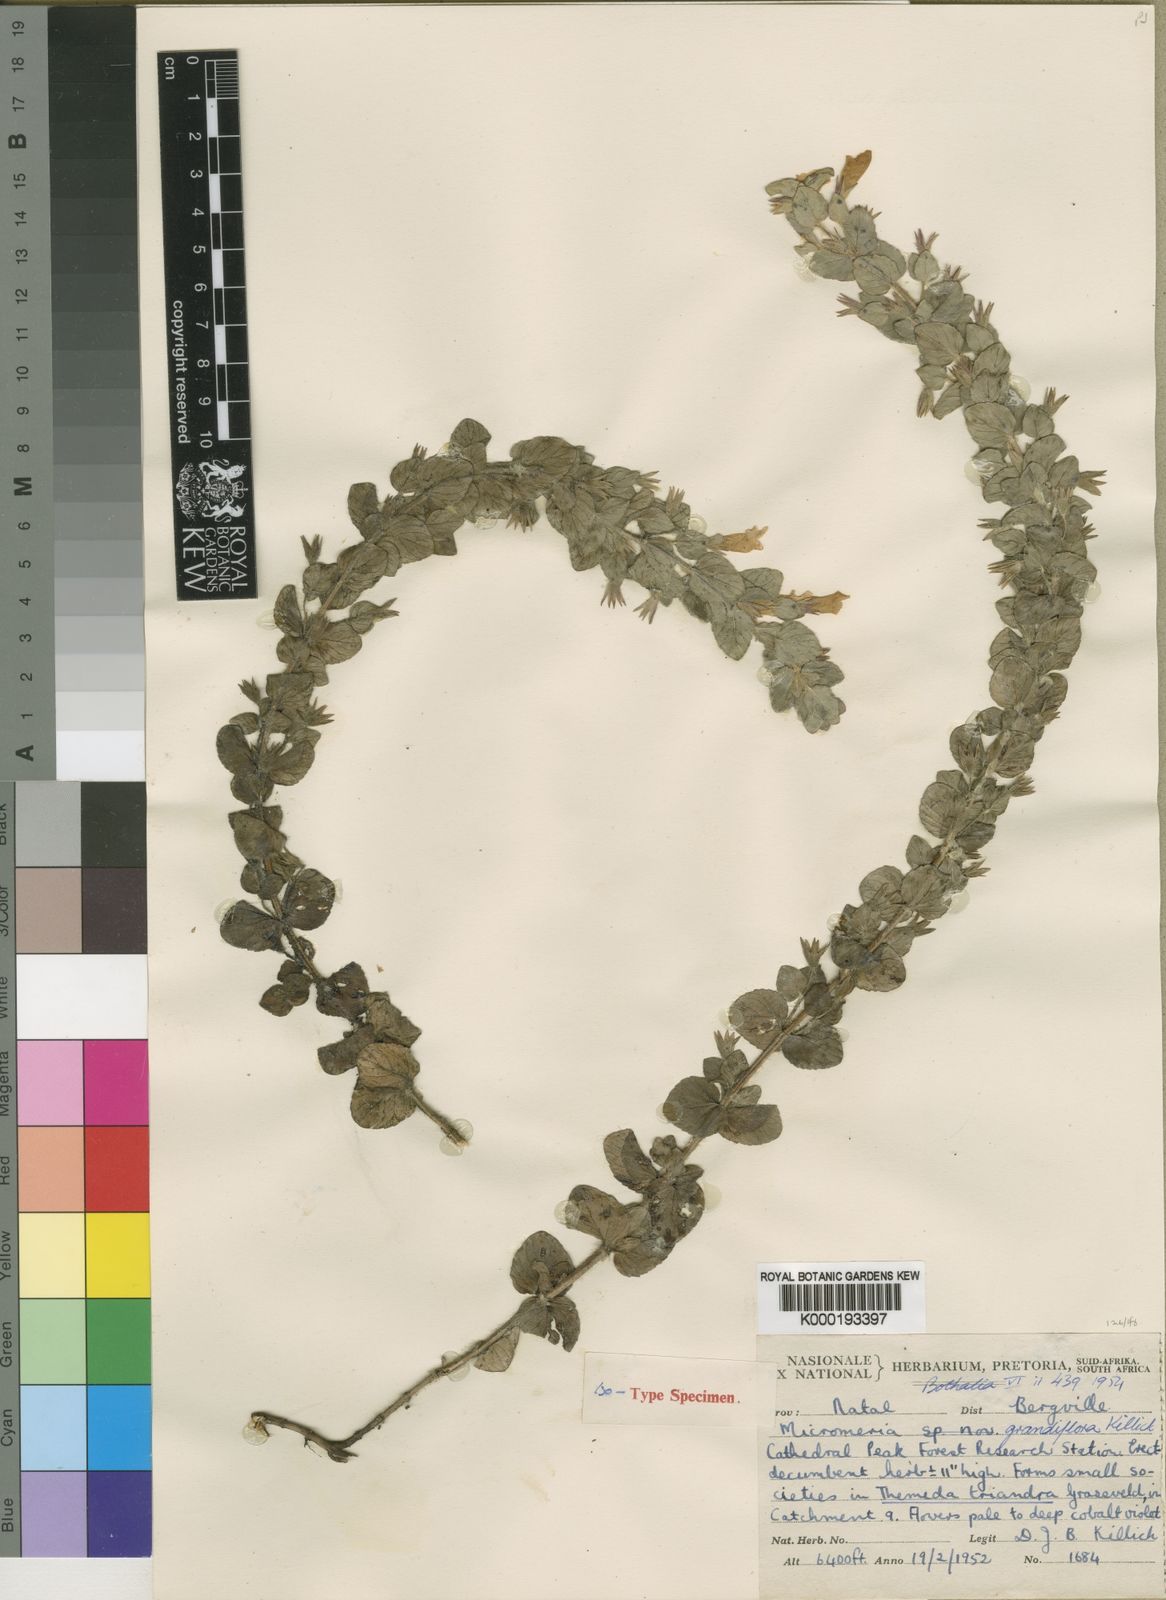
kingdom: Plantae
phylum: Tracheophyta
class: Magnoliopsida
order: Lamiales
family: Lamiaceae
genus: Killickia
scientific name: Killickia grandiflora
